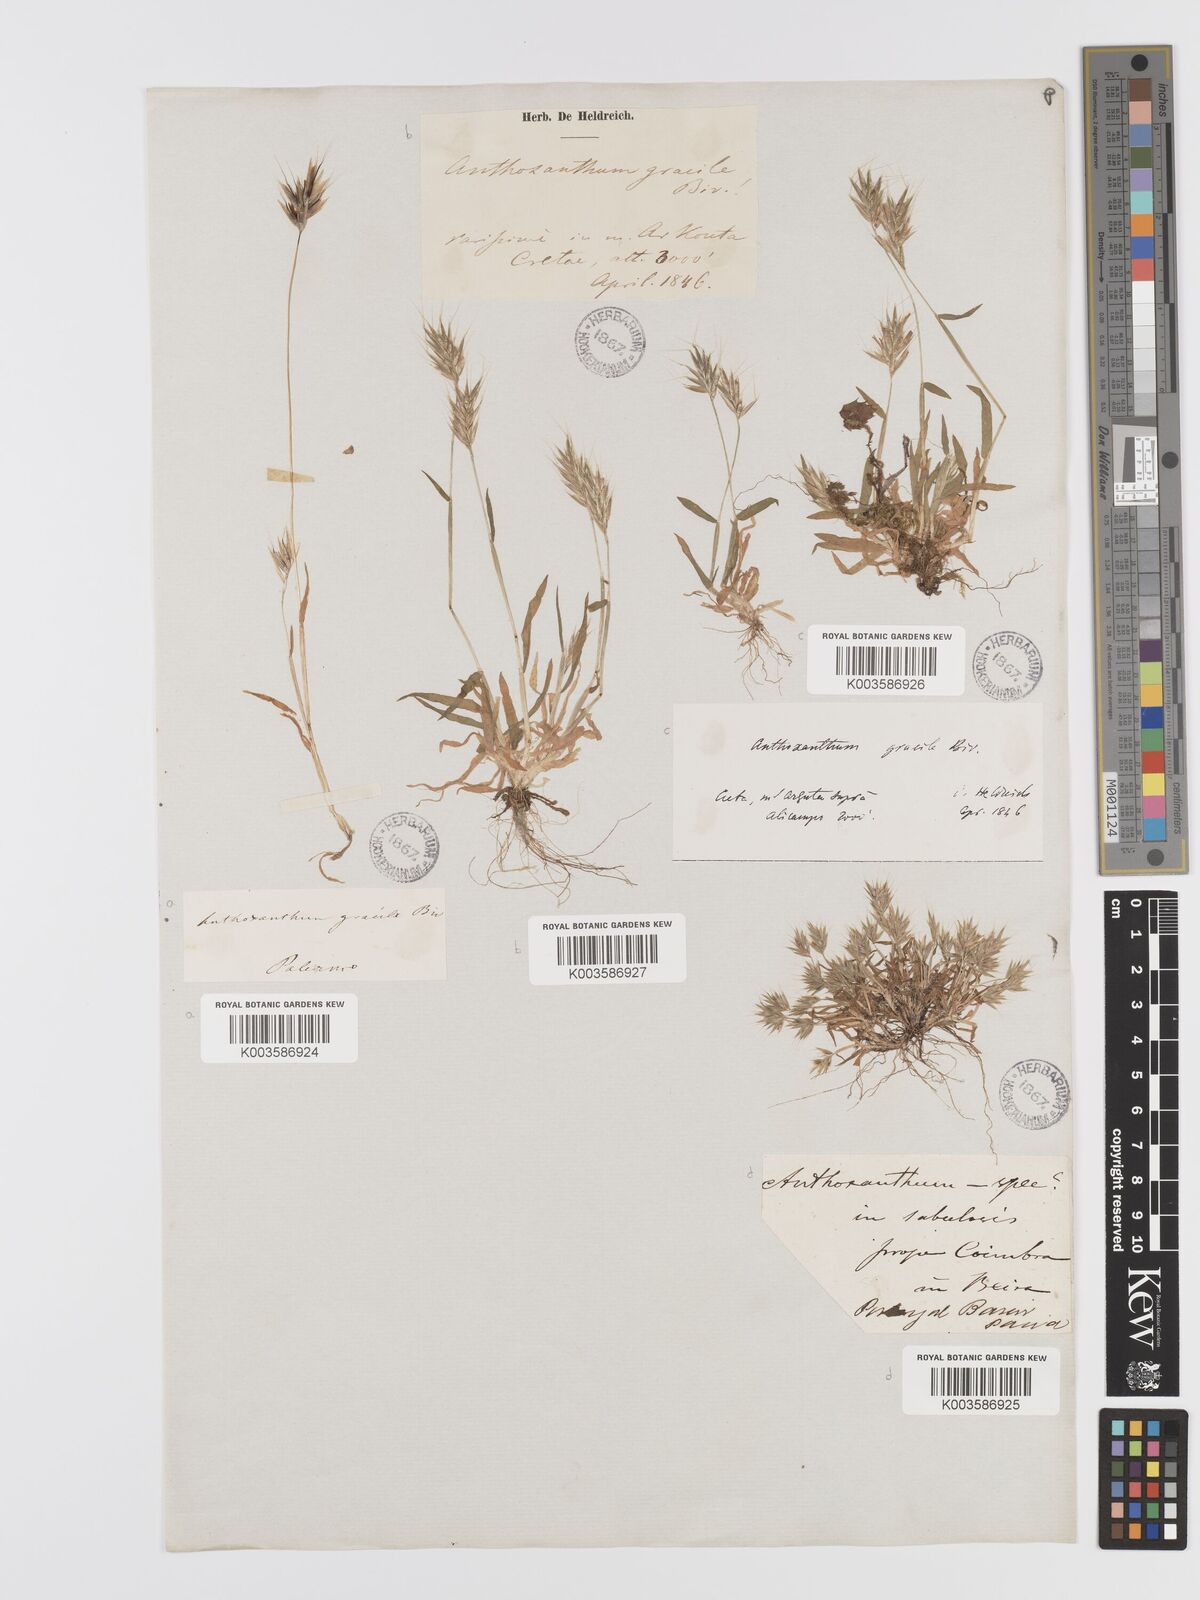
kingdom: Plantae
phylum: Tracheophyta
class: Liliopsida
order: Poales
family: Poaceae
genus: Anthoxanthum
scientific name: Anthoxanthum gracile
